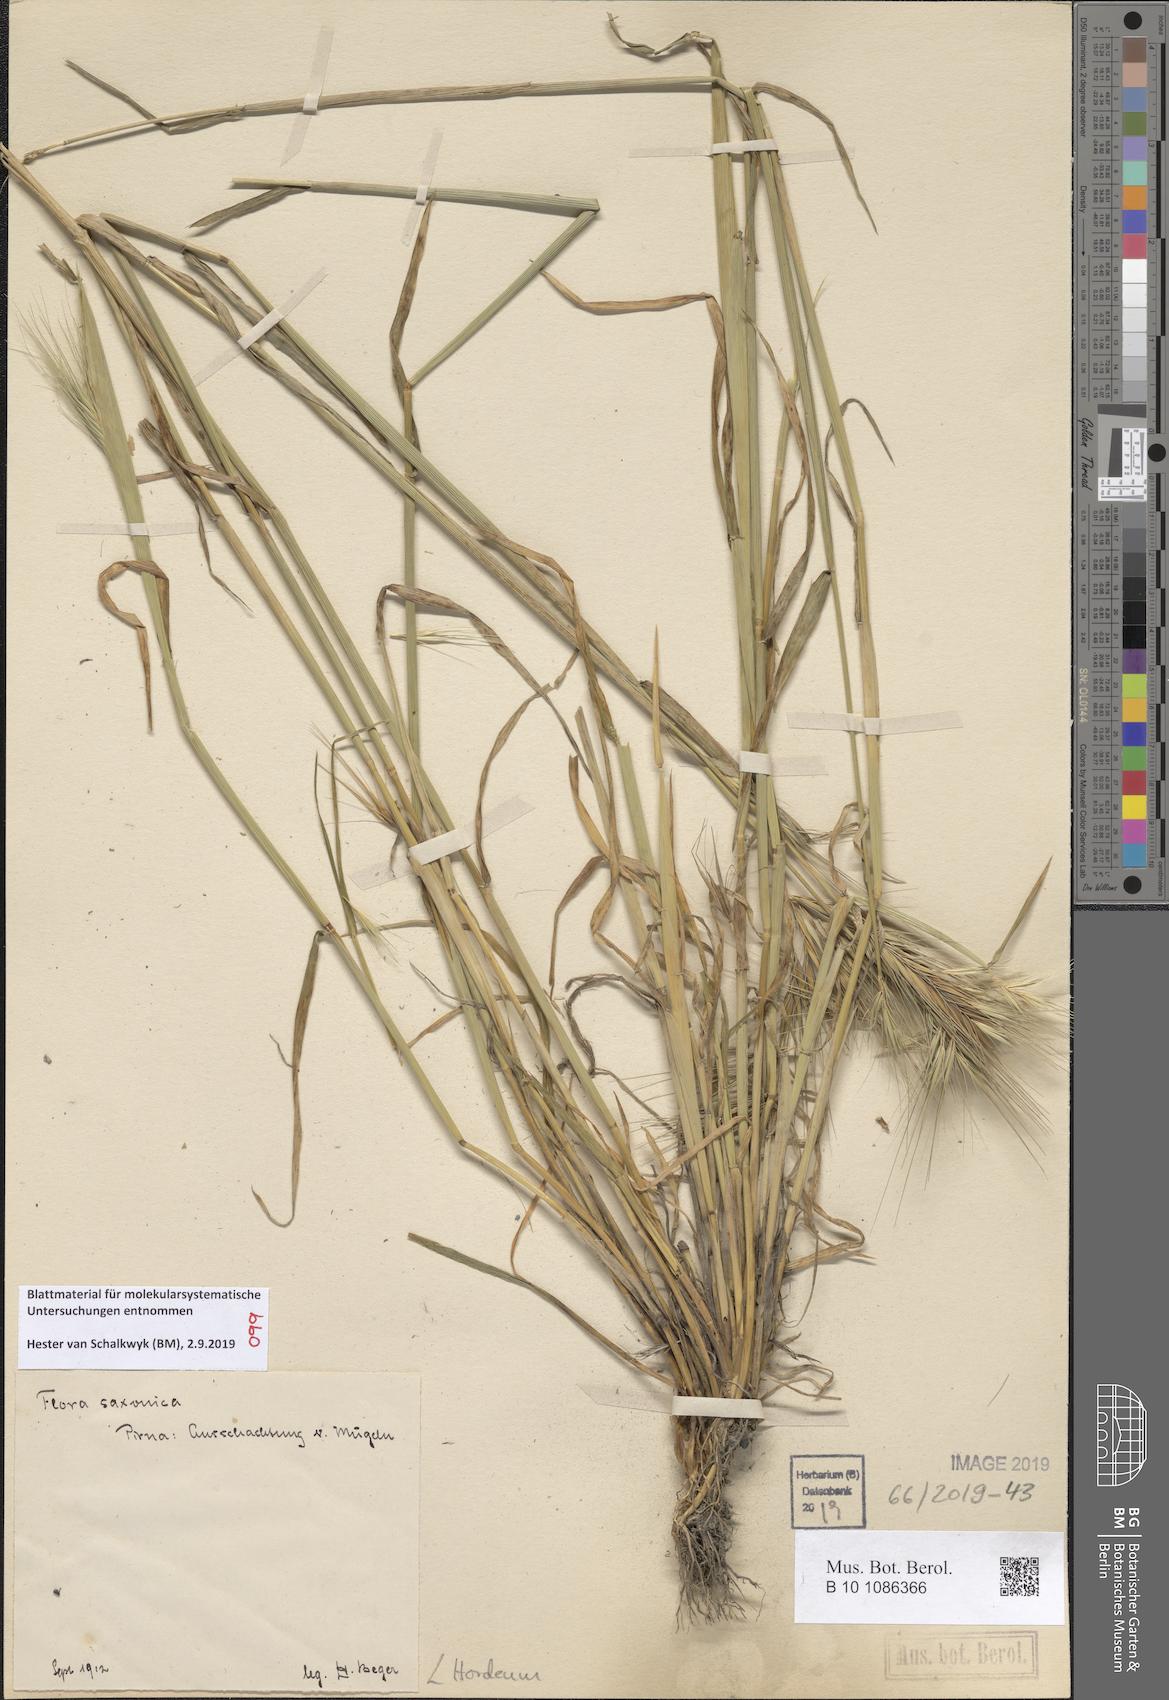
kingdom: Plantae
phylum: Tracheophyta
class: Liliopsida
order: Poales
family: Poaceae
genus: Hordeum
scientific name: Hordeum
